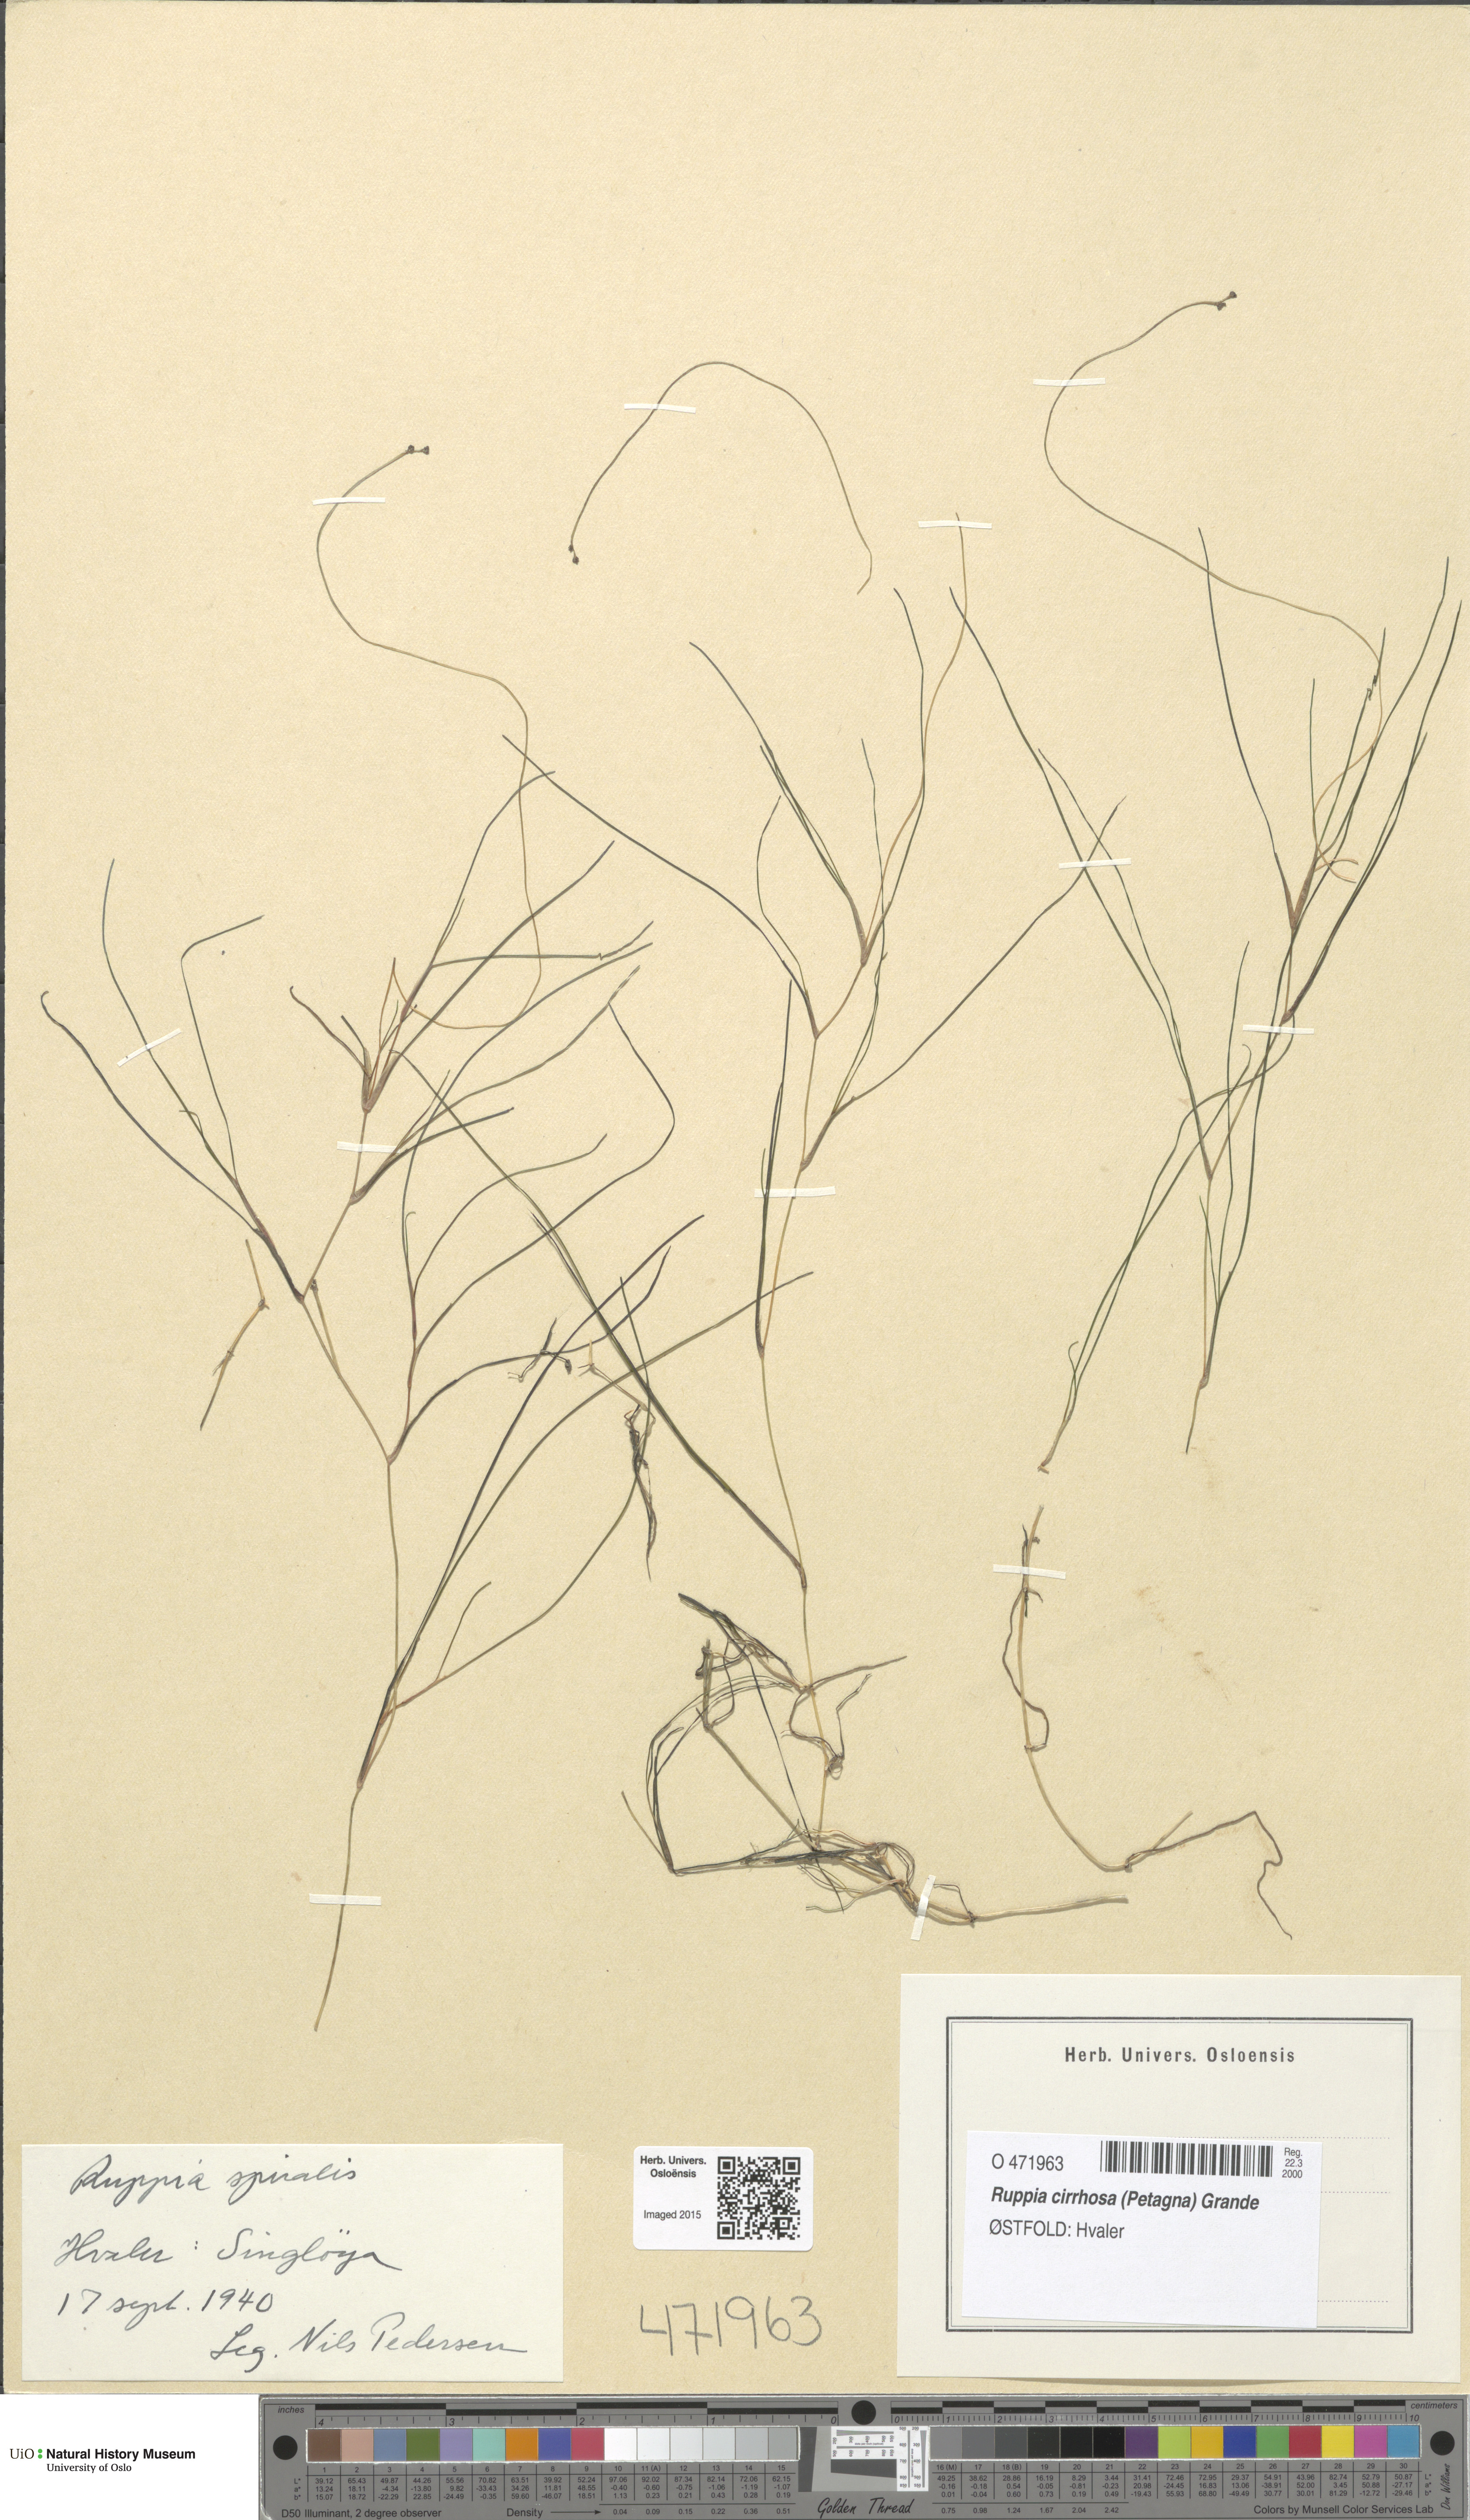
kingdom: Plantae
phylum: Tracheophyta
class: Liliopsida
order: Alismatales
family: Ruppiaceae
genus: Ruppia
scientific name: Ruppia cirrhosa
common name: Spiral tasselweed
